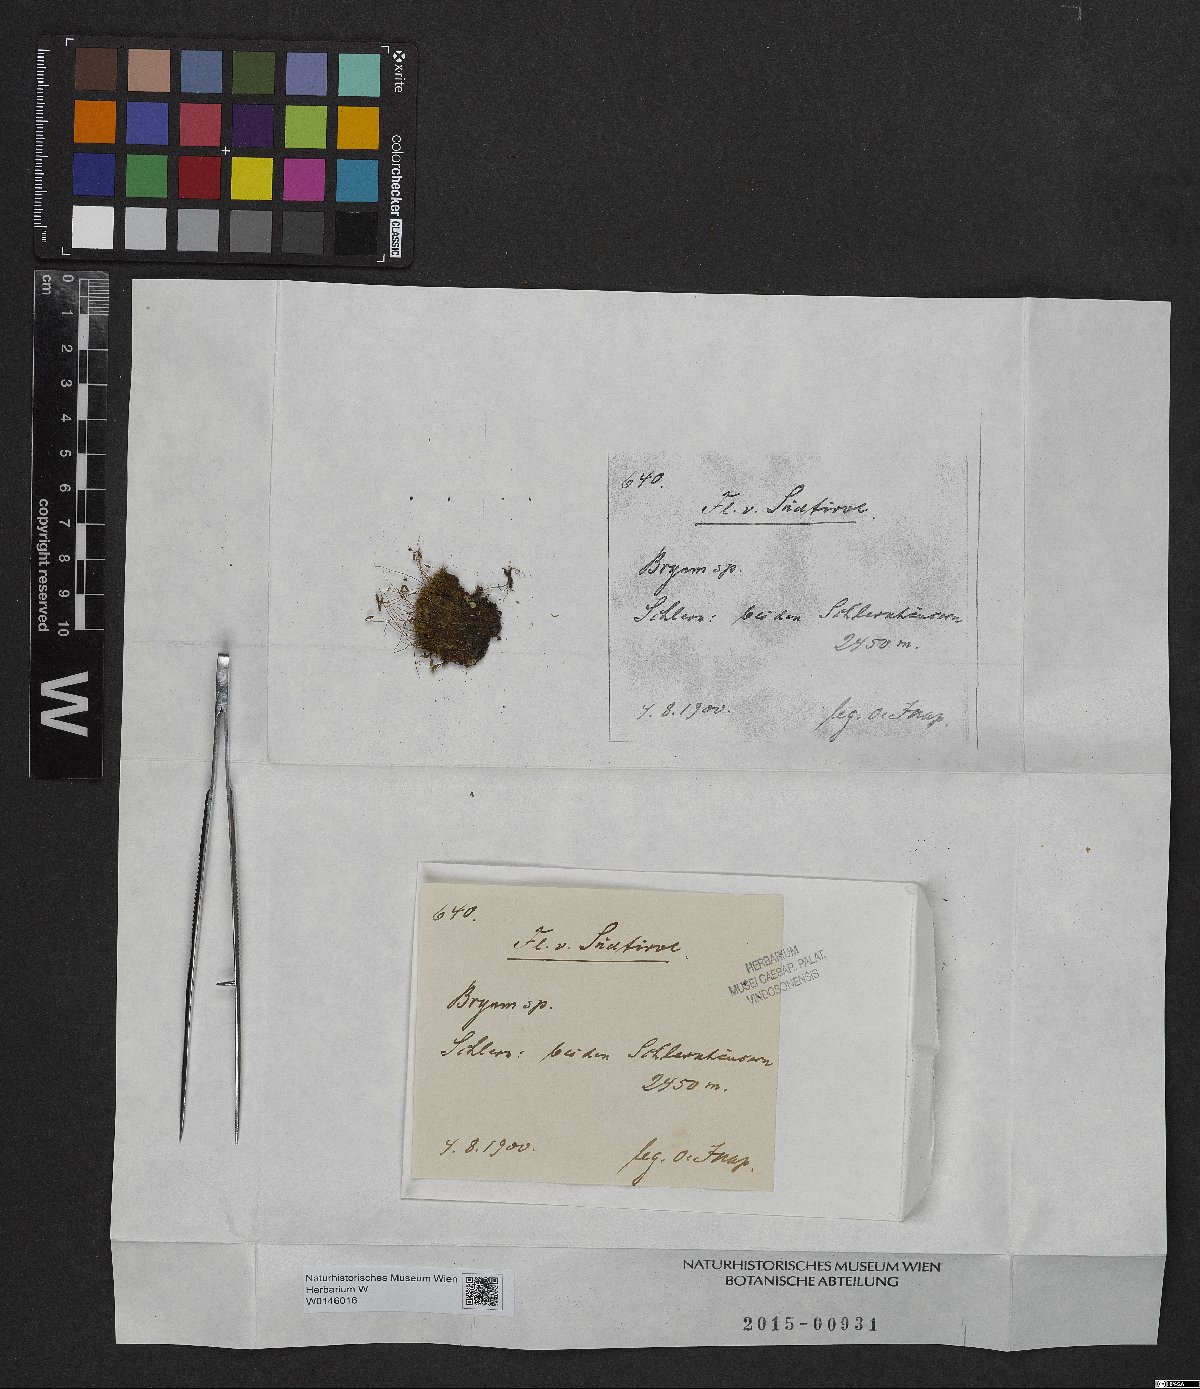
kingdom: Plantae
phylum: Bryophyta
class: Bryopsida
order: Bryales
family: Bryaceae
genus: Bryum
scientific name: Bryum
